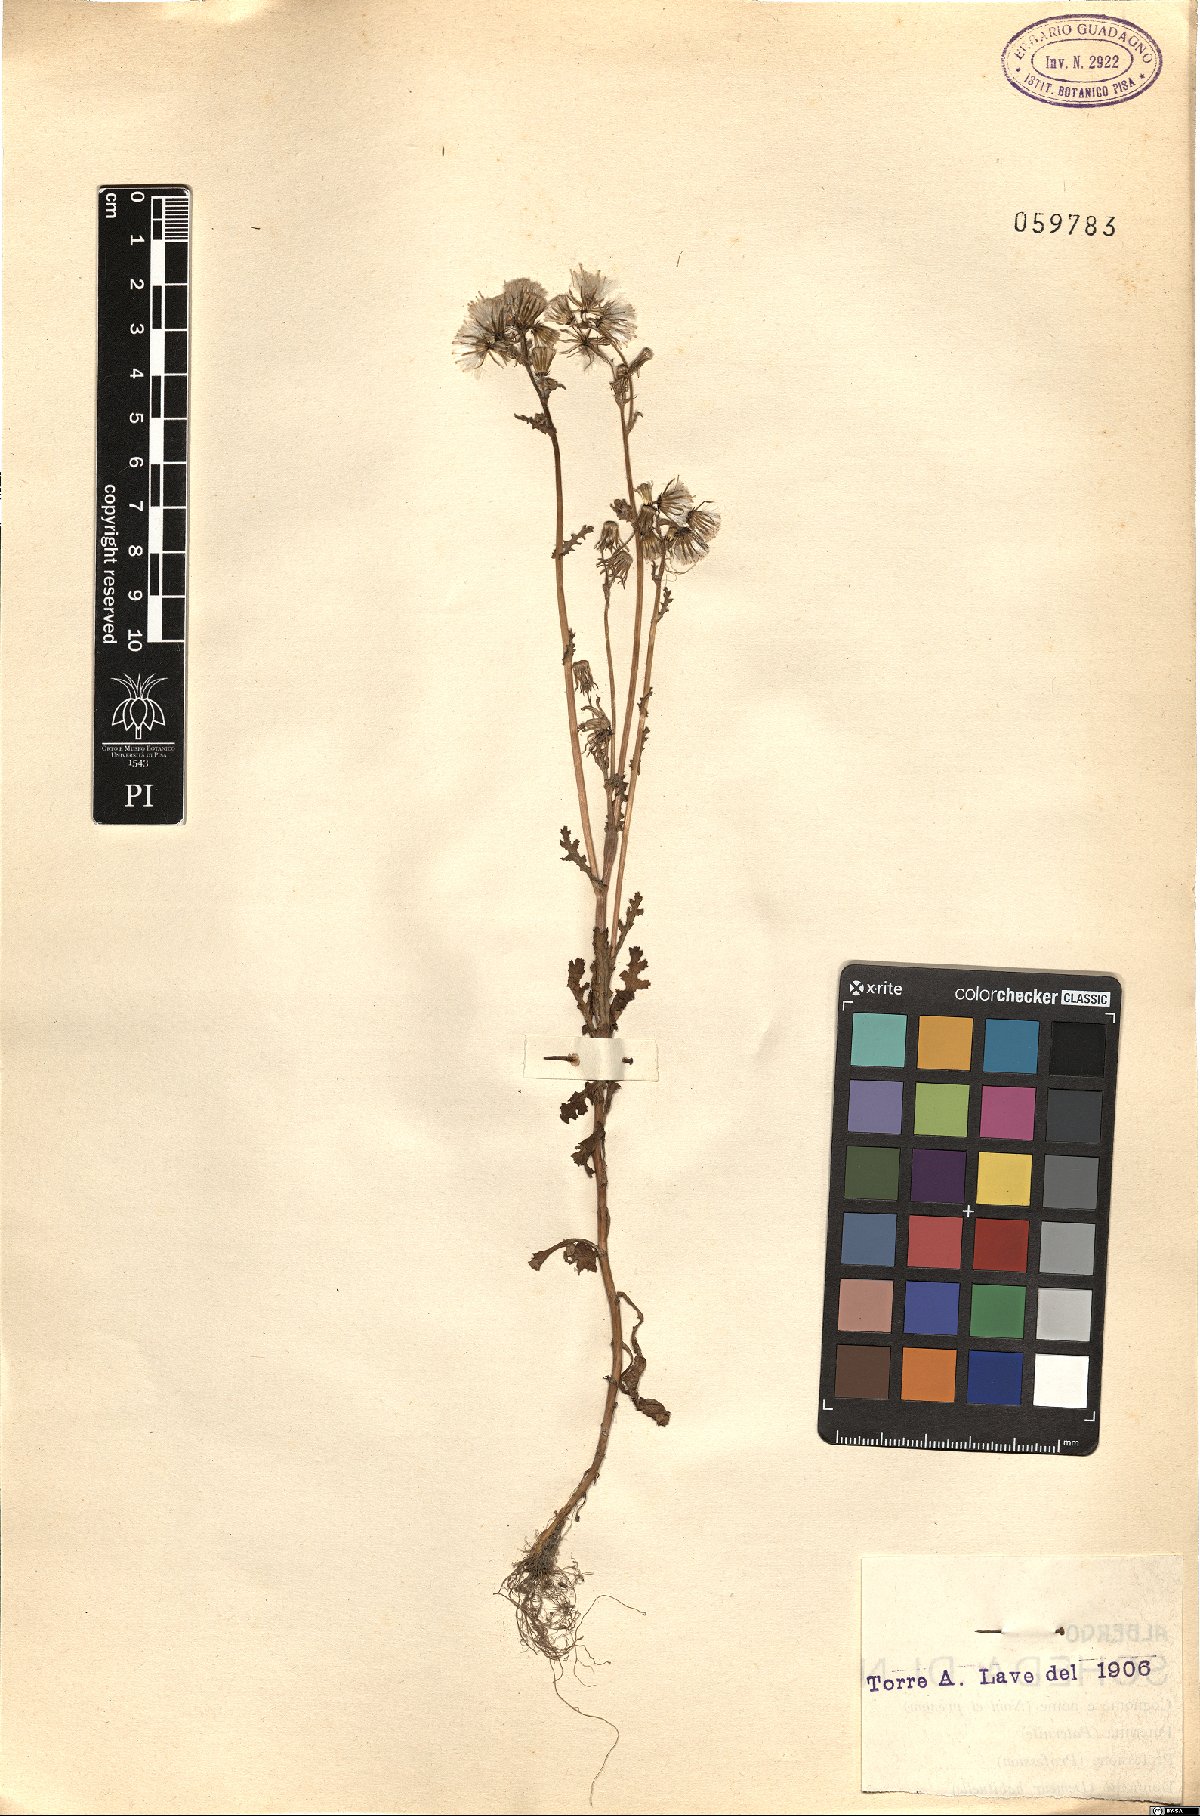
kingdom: Plantae
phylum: Tracheophyta
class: Magnoliopsida
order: Asterales
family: Asteraceae
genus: Senecio
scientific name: Senecio
